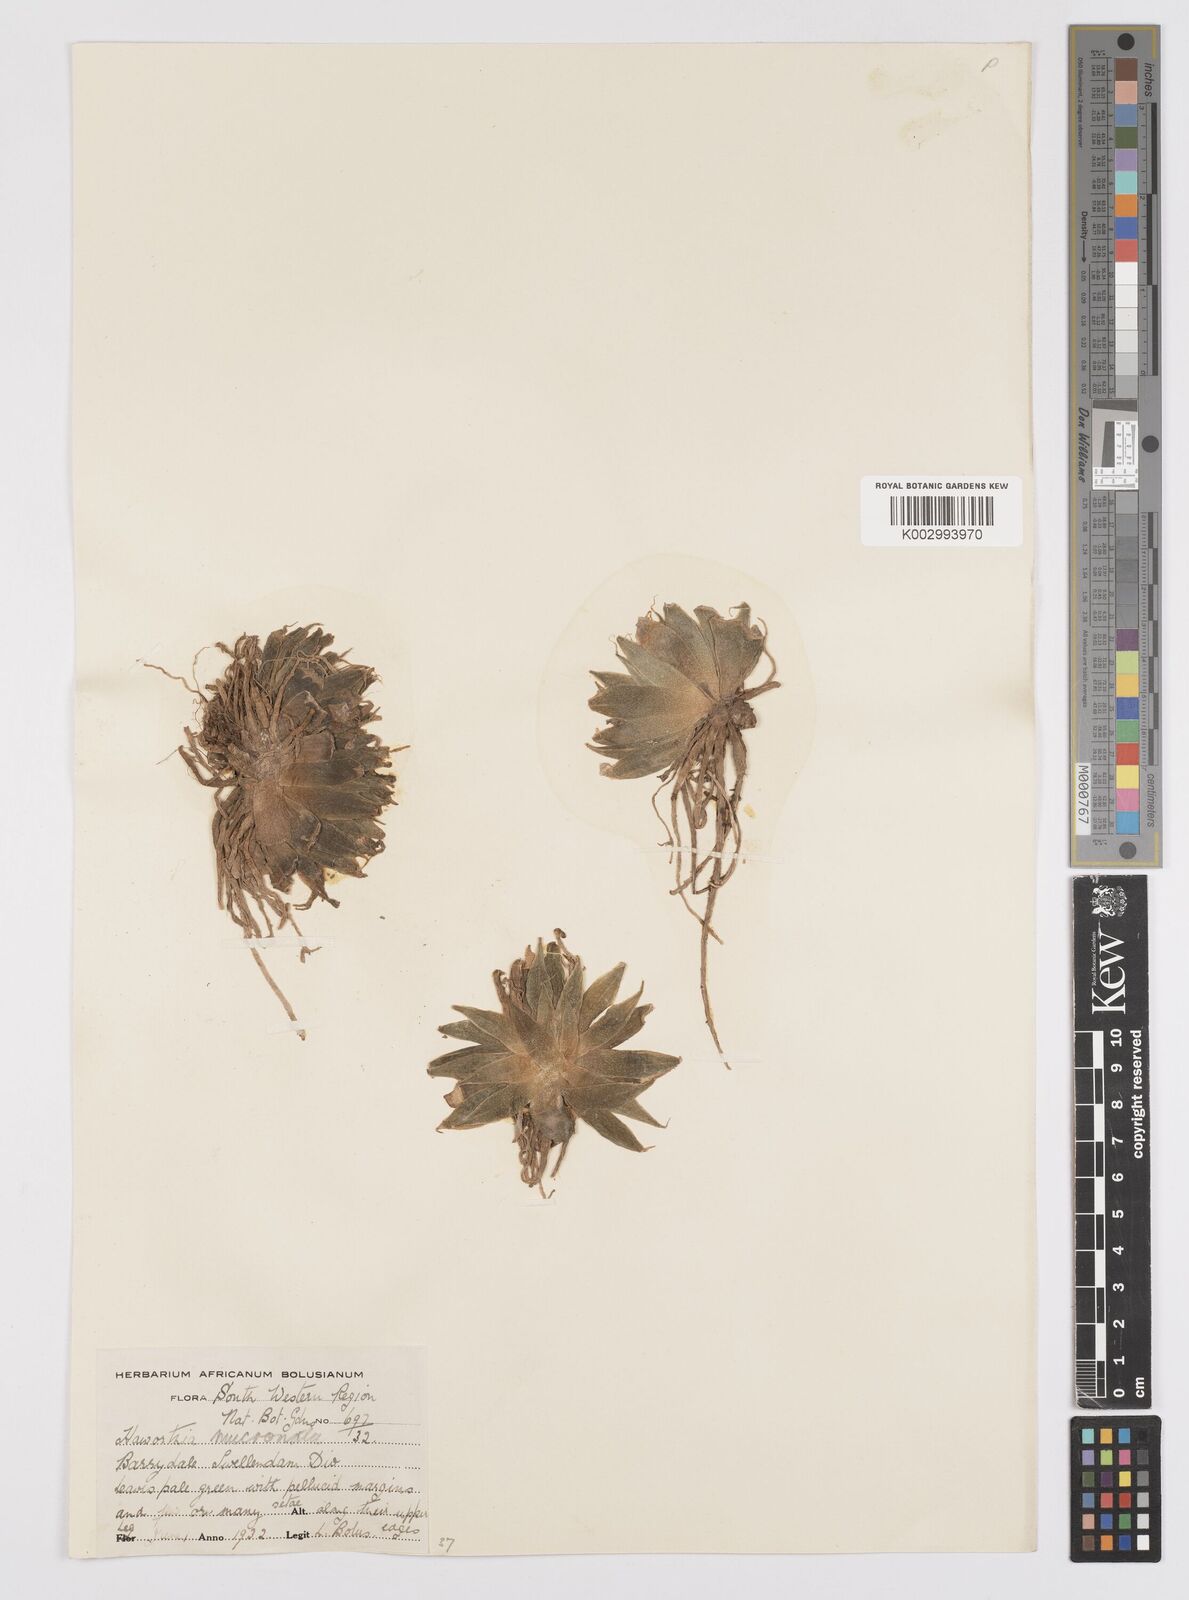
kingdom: Plantae
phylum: Tracheophyta
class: Liliopsida
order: Asparagales
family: Asphodelaceae
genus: Haworthia
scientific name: Haworthia mucronata
